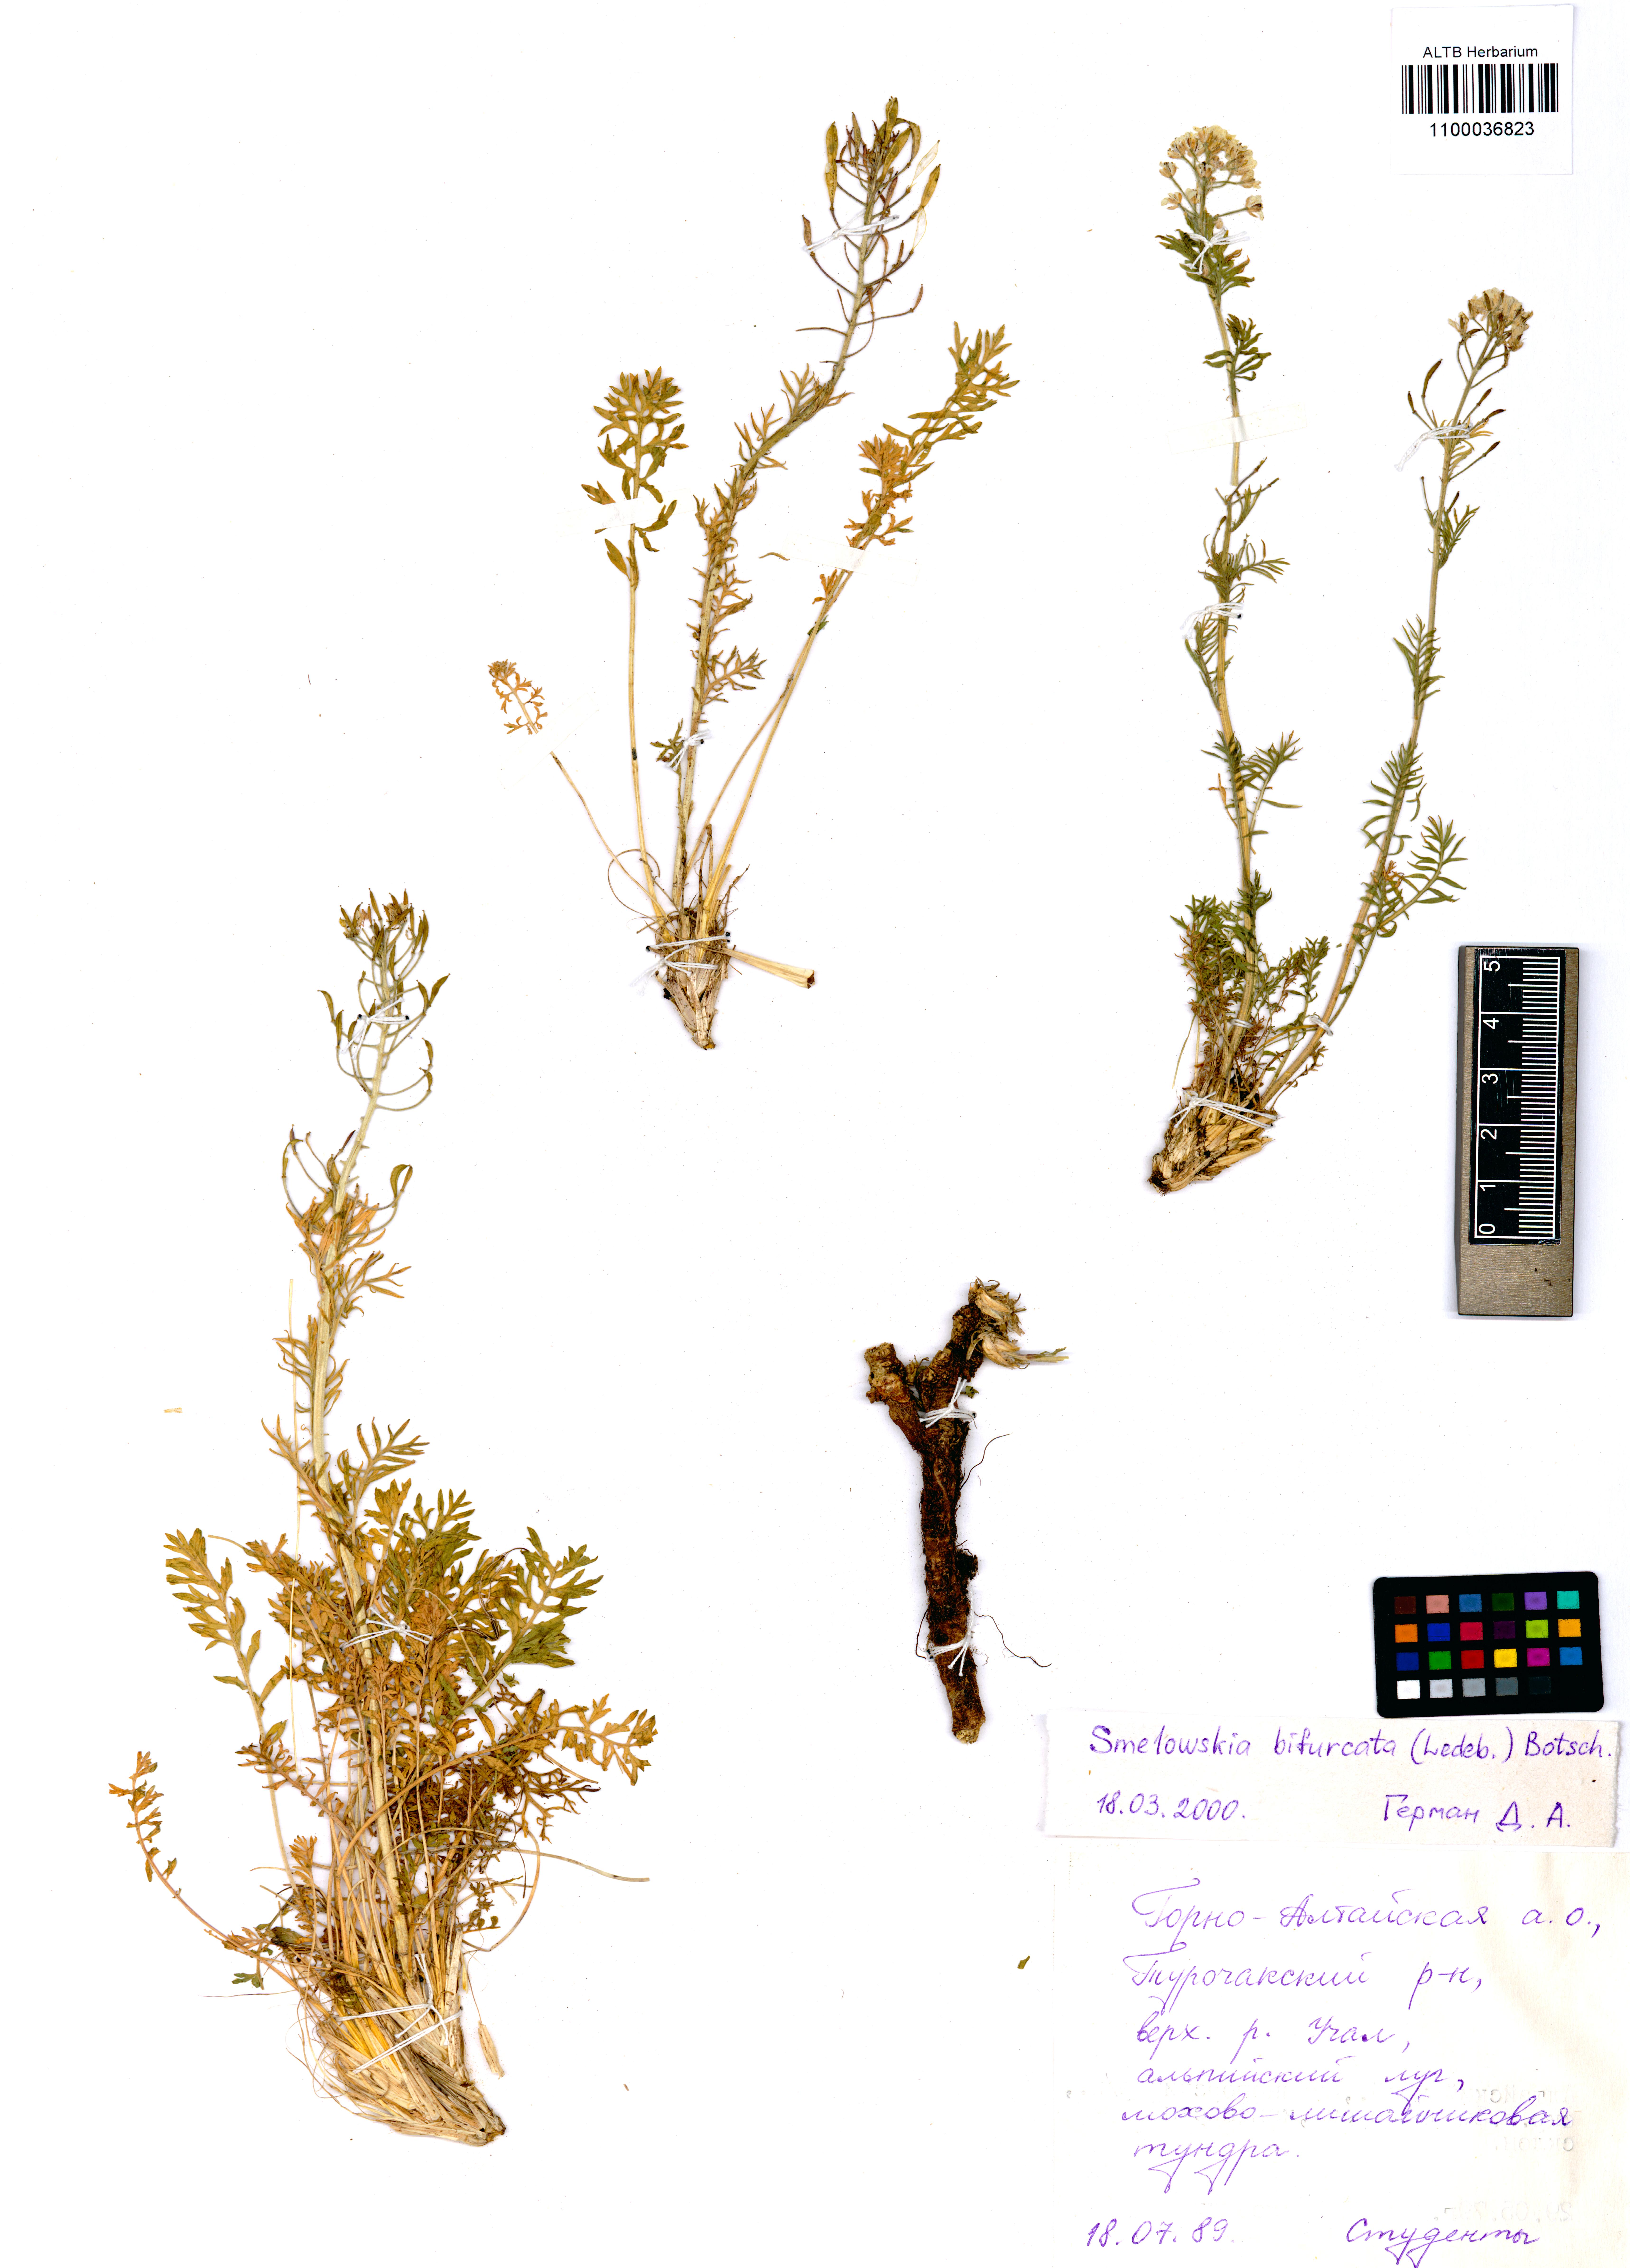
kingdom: Plantae
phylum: Tracheophyta
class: Magnoliopsida
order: Brassicales
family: Brassicaceae
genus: Smelowskia
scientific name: Smelowskia bifurcata
